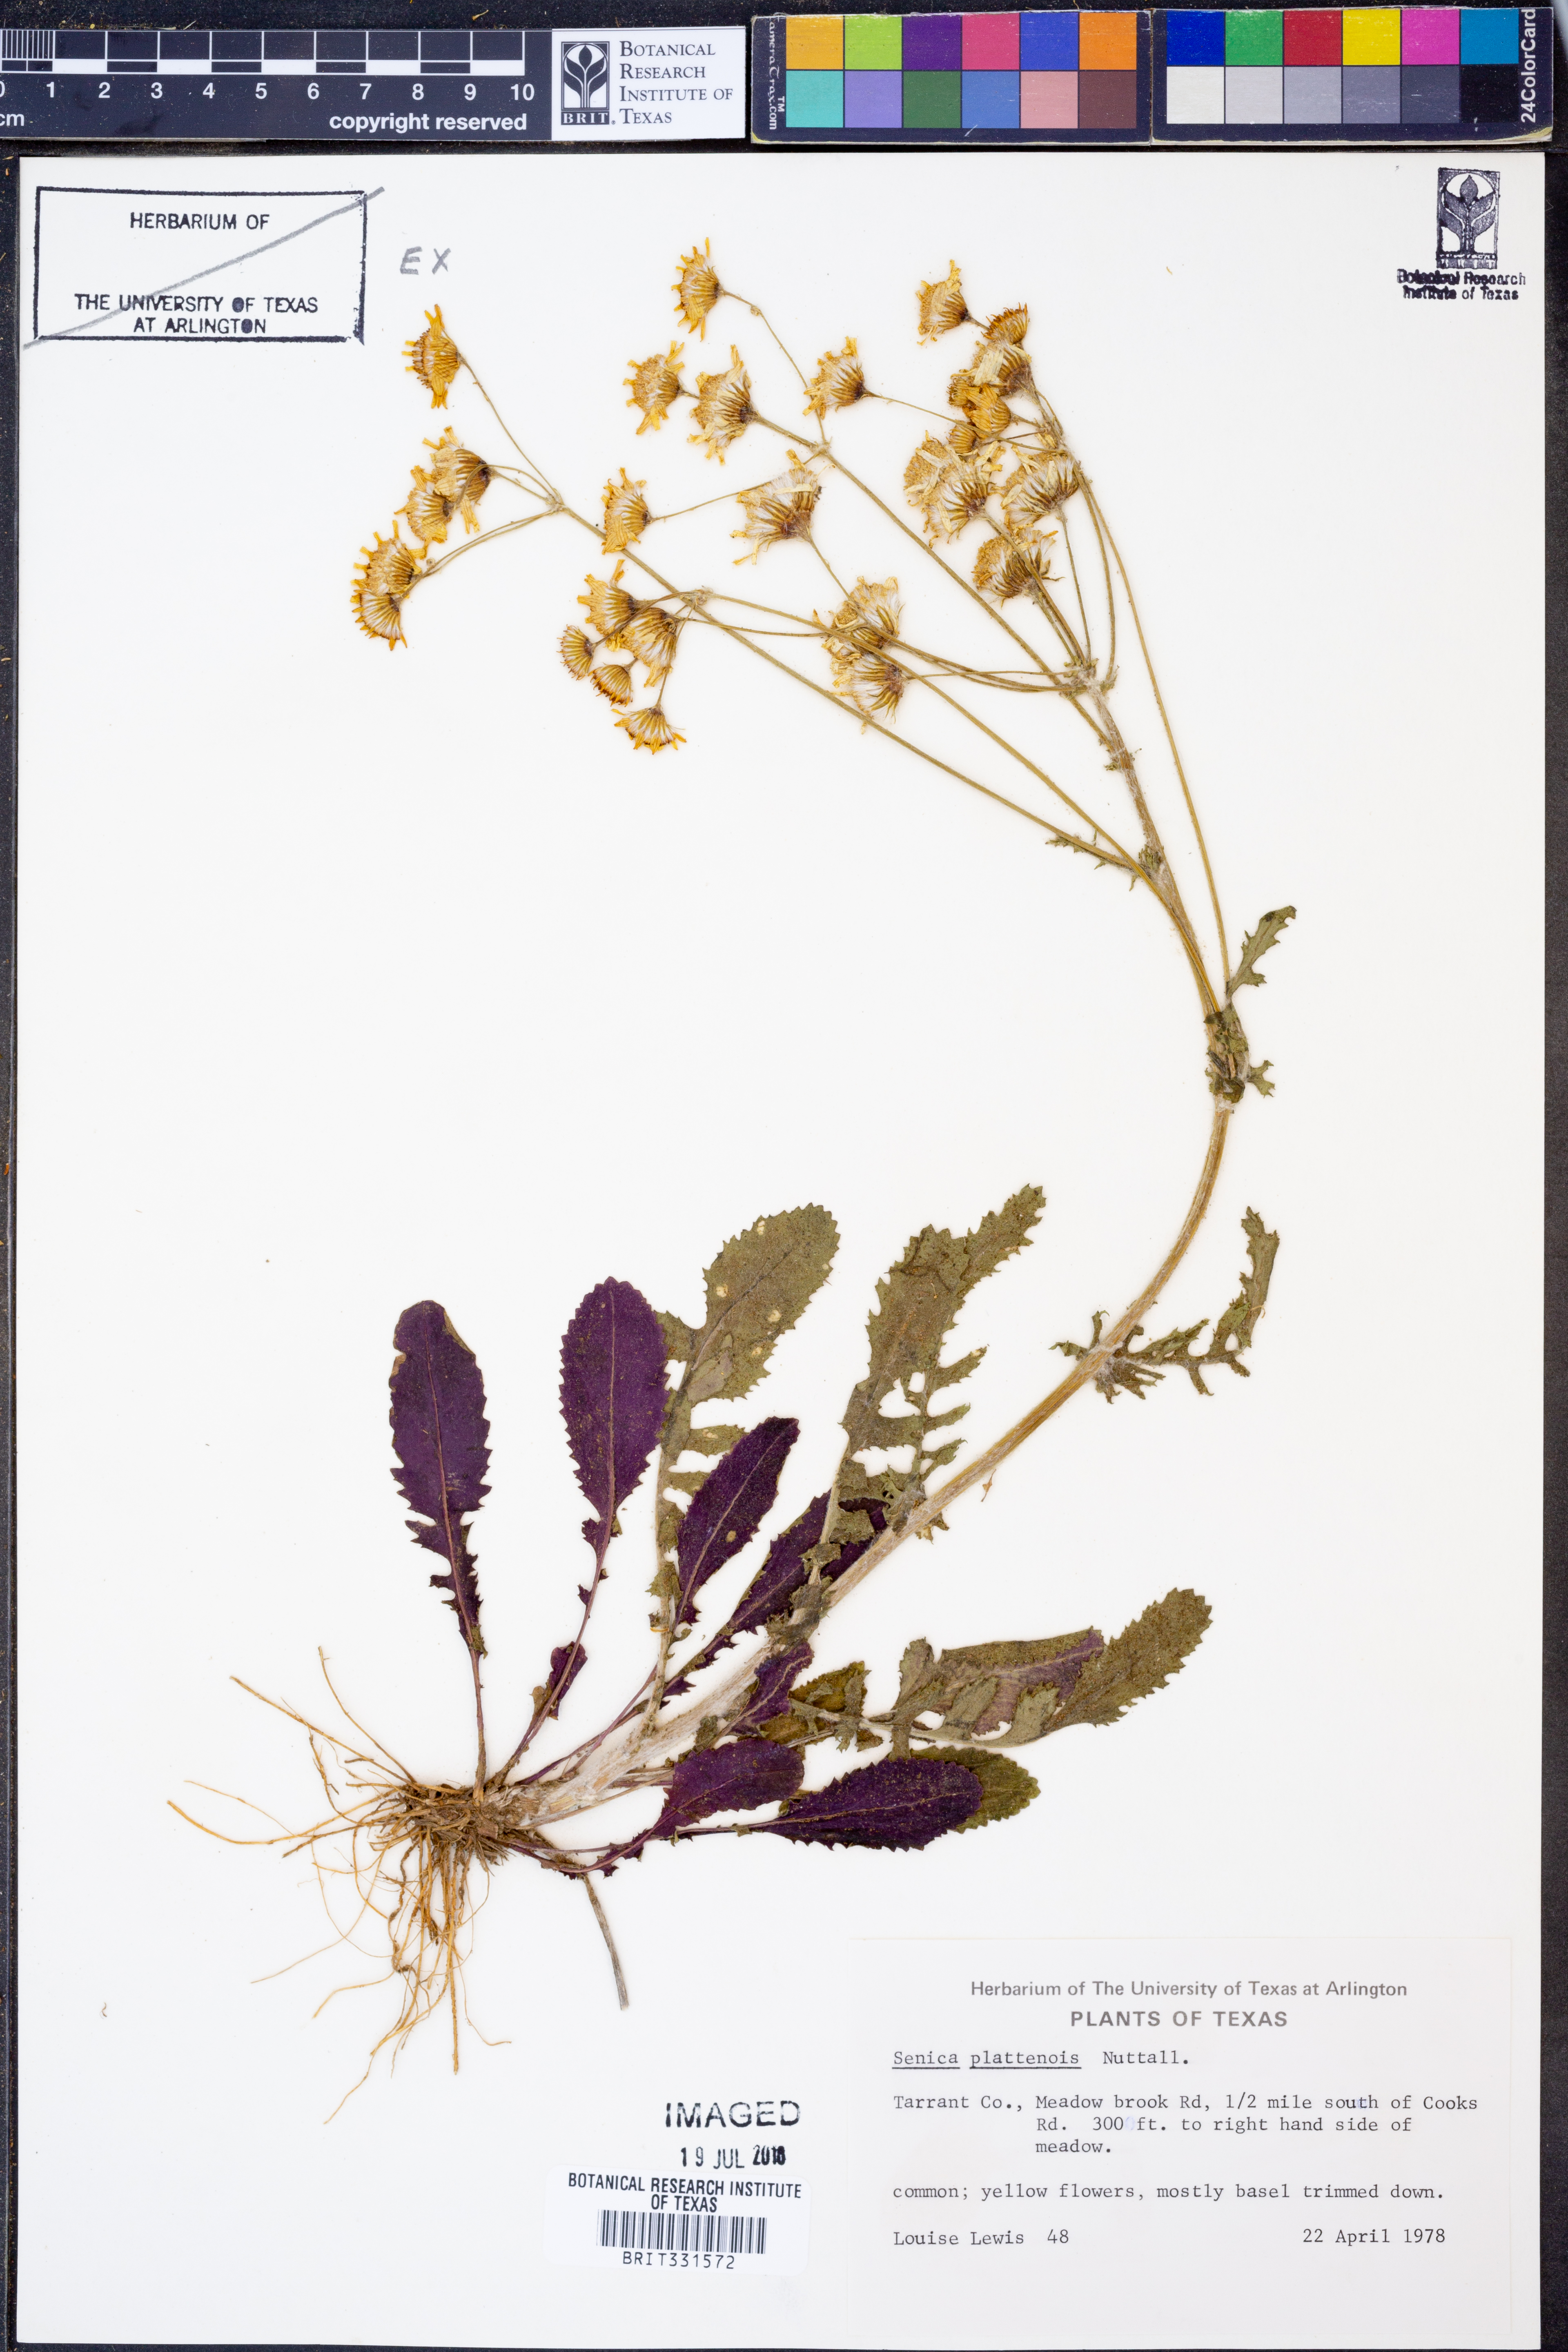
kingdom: Plantae
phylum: Tracheophyta
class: Magnoliopsida
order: Asterales
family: Asteraceae
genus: Packera
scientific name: Packera plattensis
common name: Prairie groundsel
